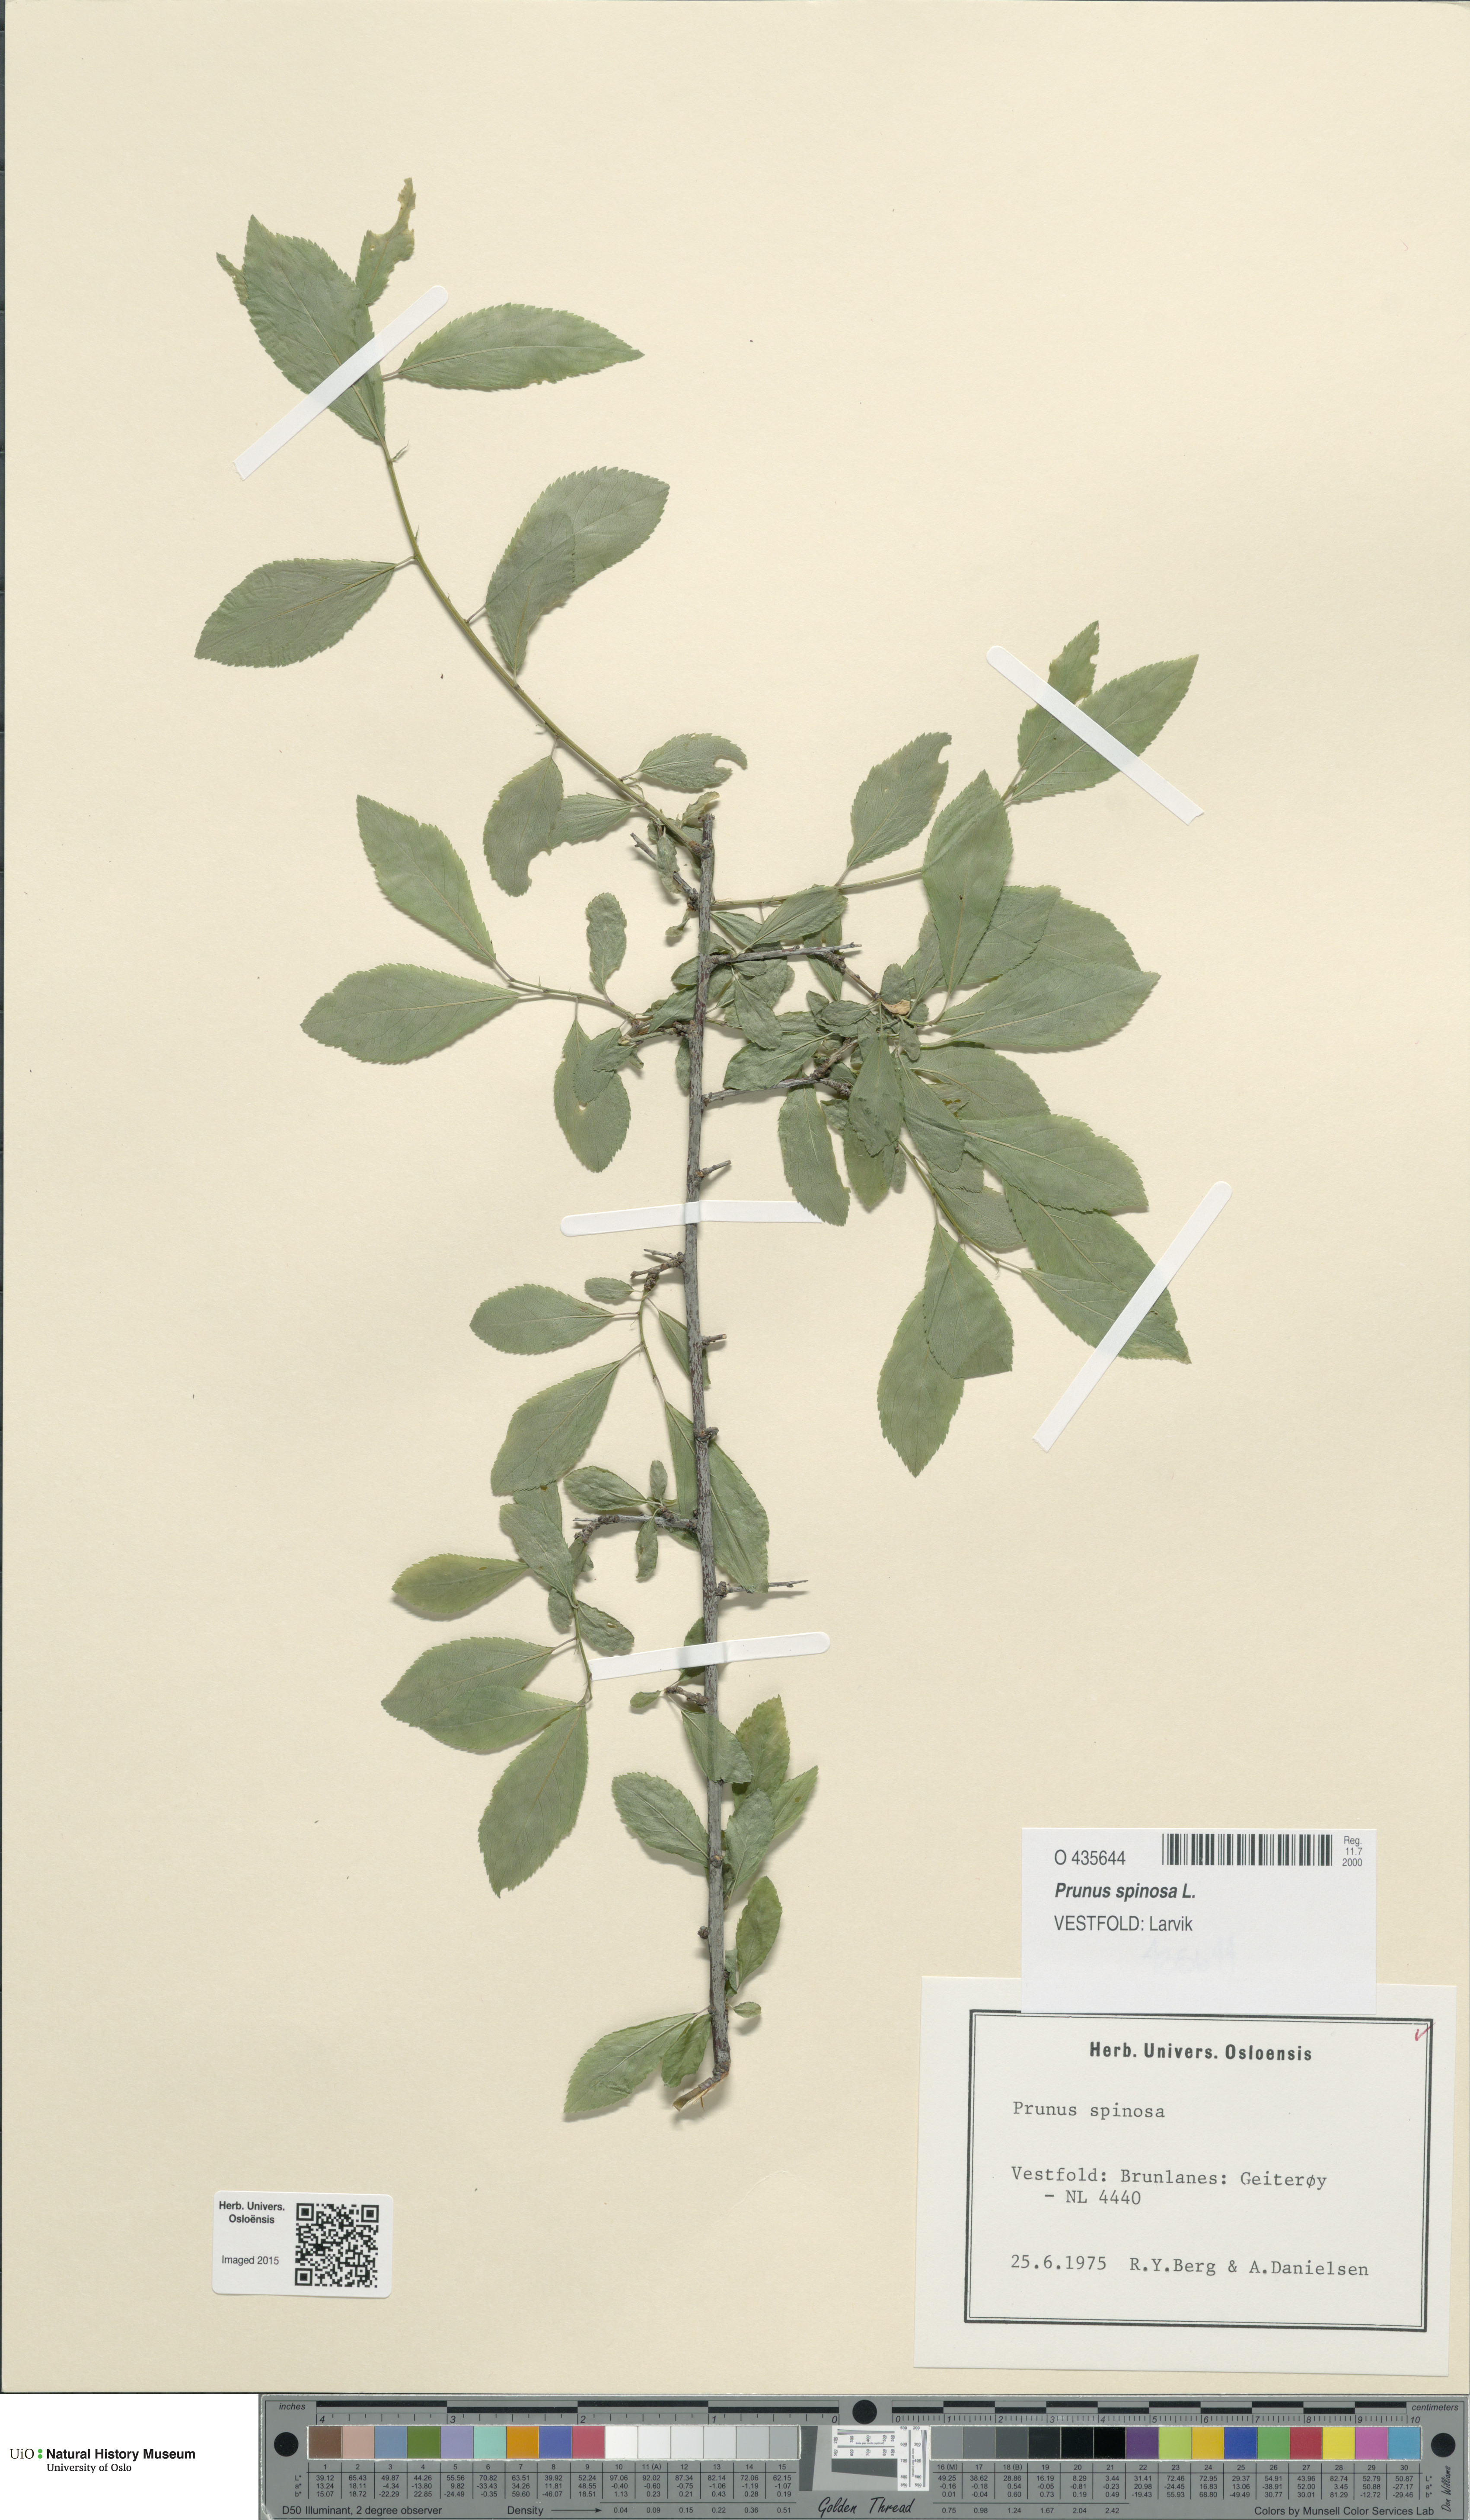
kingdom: Plantae
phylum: Tracheophyta
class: Magnoliopsida
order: Rosales
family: Rosaceae
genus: Prunus
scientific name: Prunus spinosa
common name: Blackthorn
